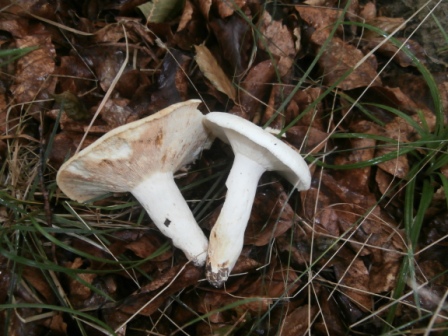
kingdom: Fungi
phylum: Basidiomycota
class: Agaricomycetes
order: Russulales
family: Russulaceae
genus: Lactifluus
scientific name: Lactifluus piperatus
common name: peber-mælkehat
